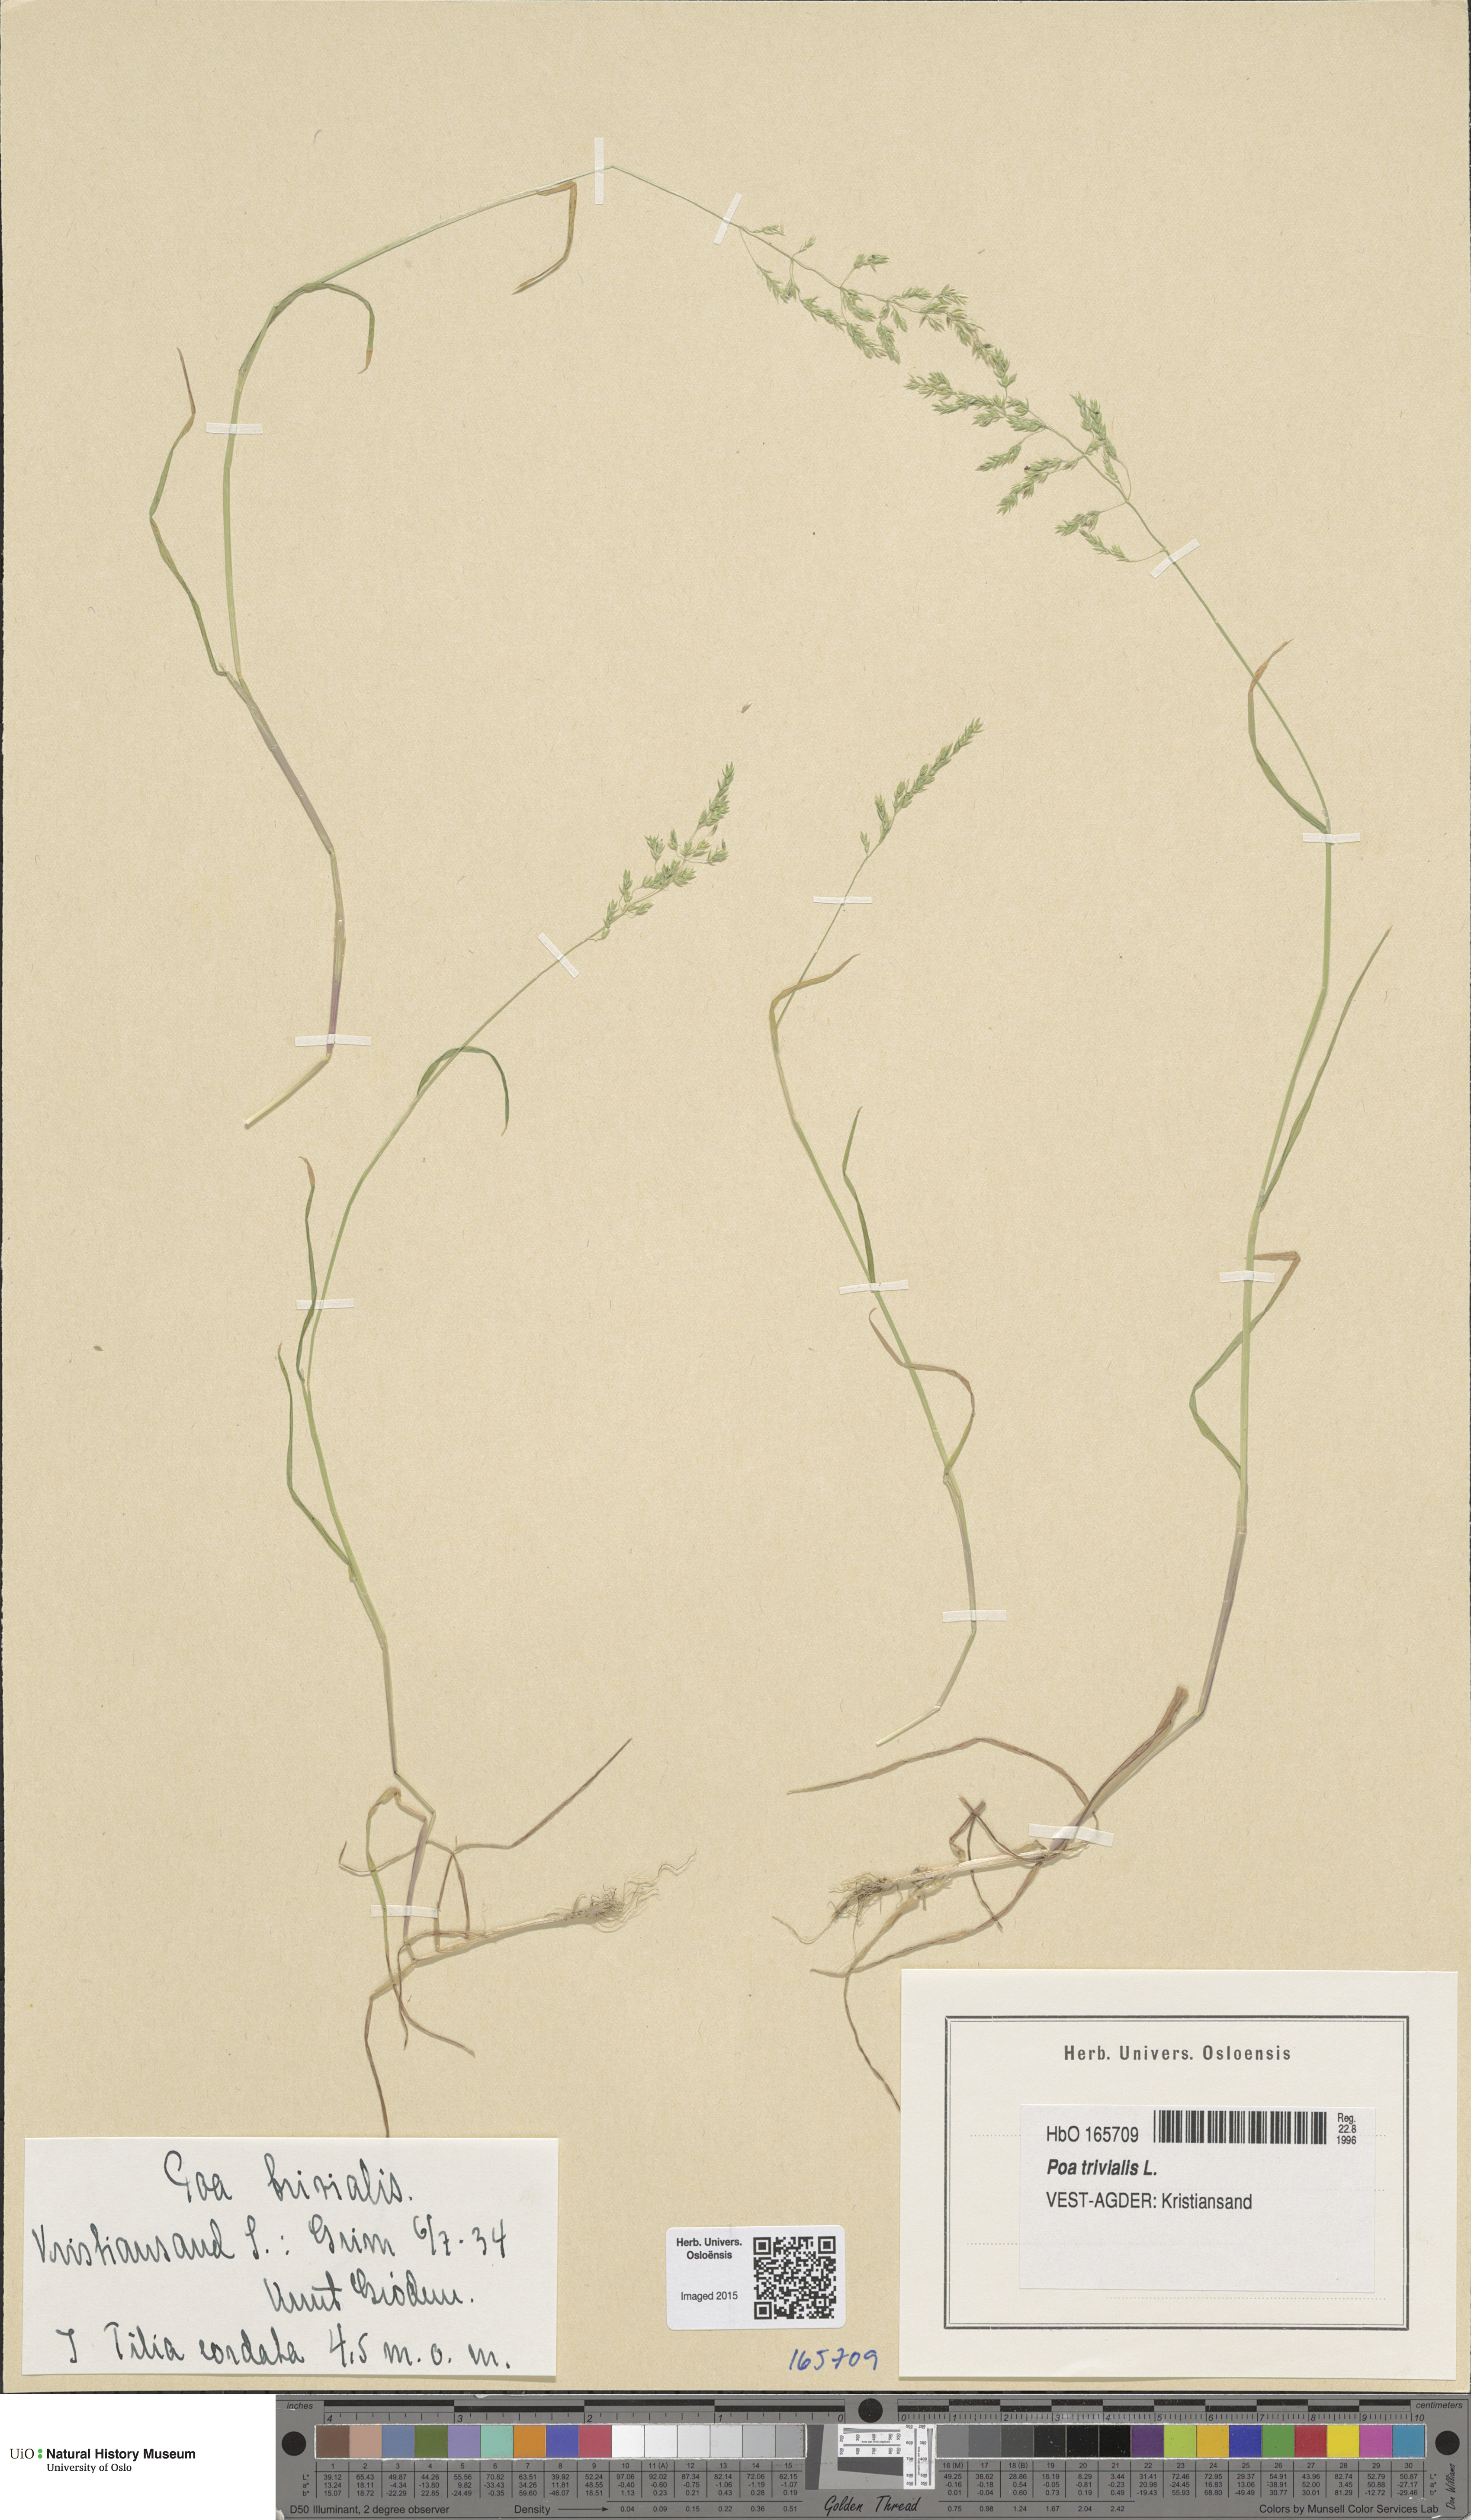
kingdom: Plantae
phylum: Tracheophyta
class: Liliopsida
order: Poales
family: Poaceae
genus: Poa
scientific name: Poa trivialis
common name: Rough bluegrass
